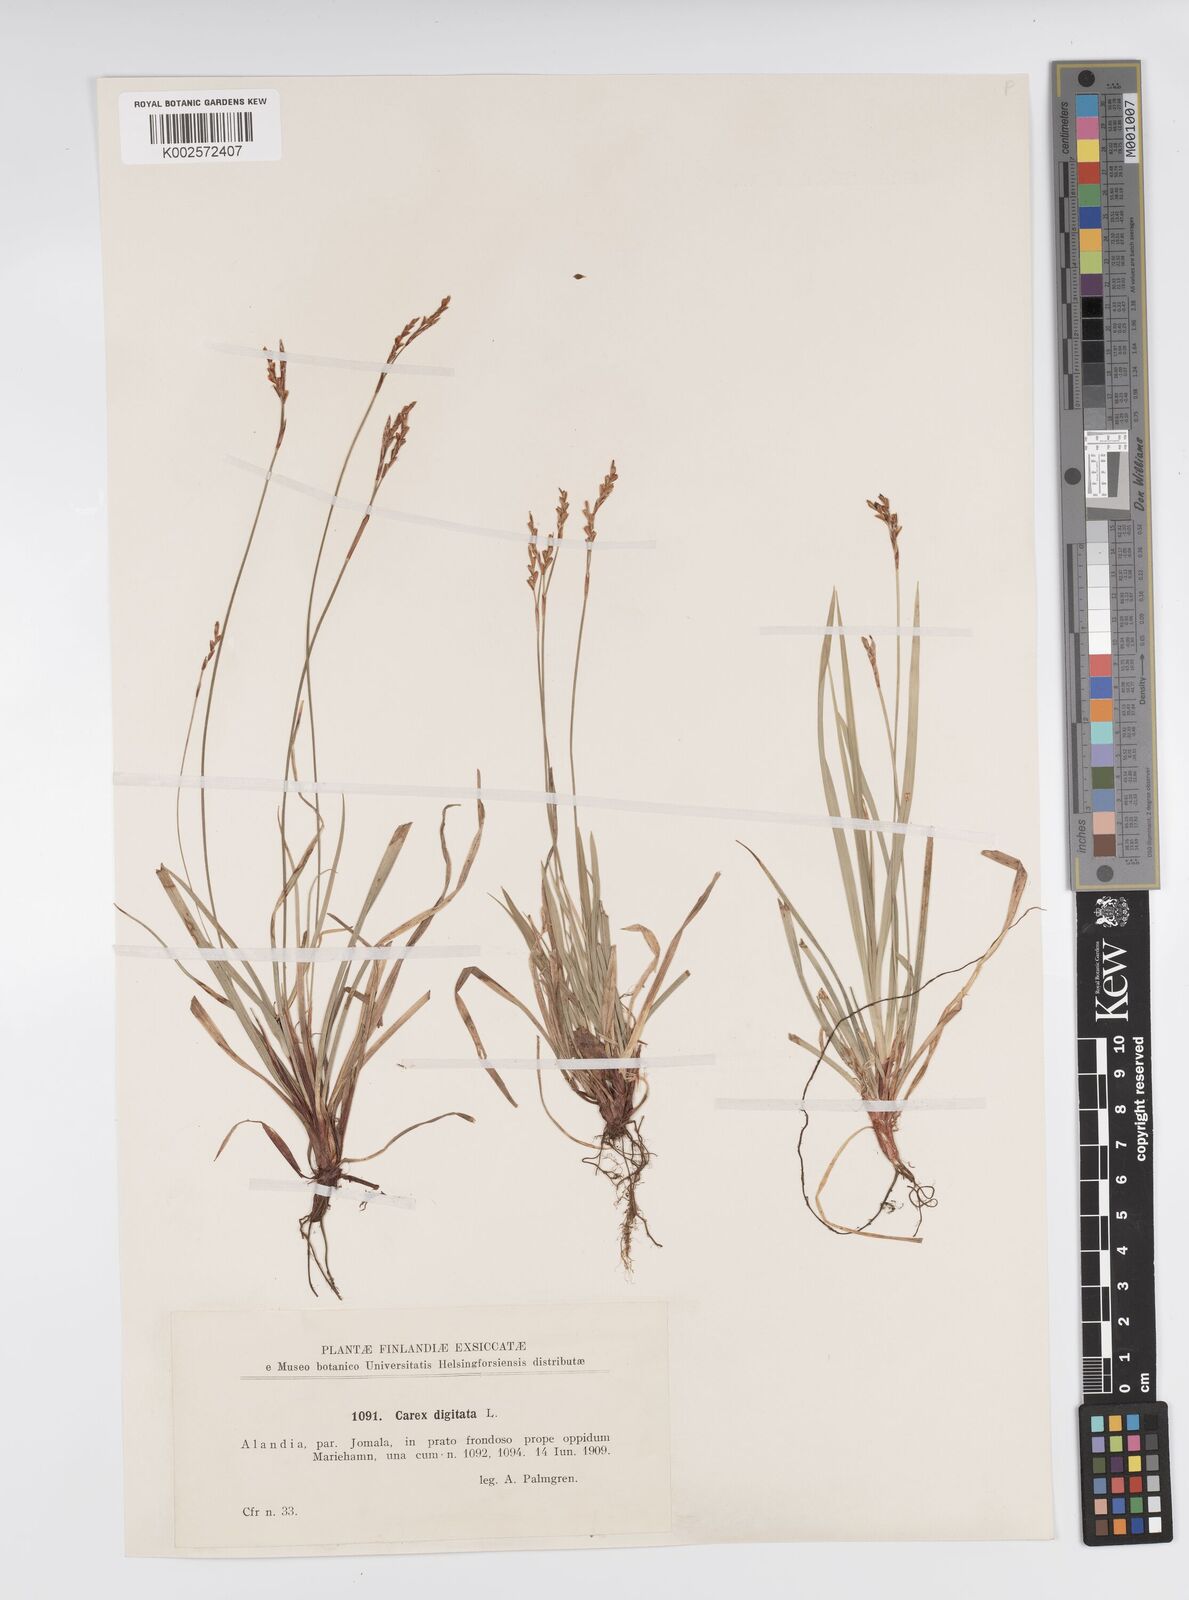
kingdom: Plantae
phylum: Tracheophyta
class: Liliopsida
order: Poales
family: Cyperaceae
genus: Carex
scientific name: Carex digitata
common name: Fingered sedge
